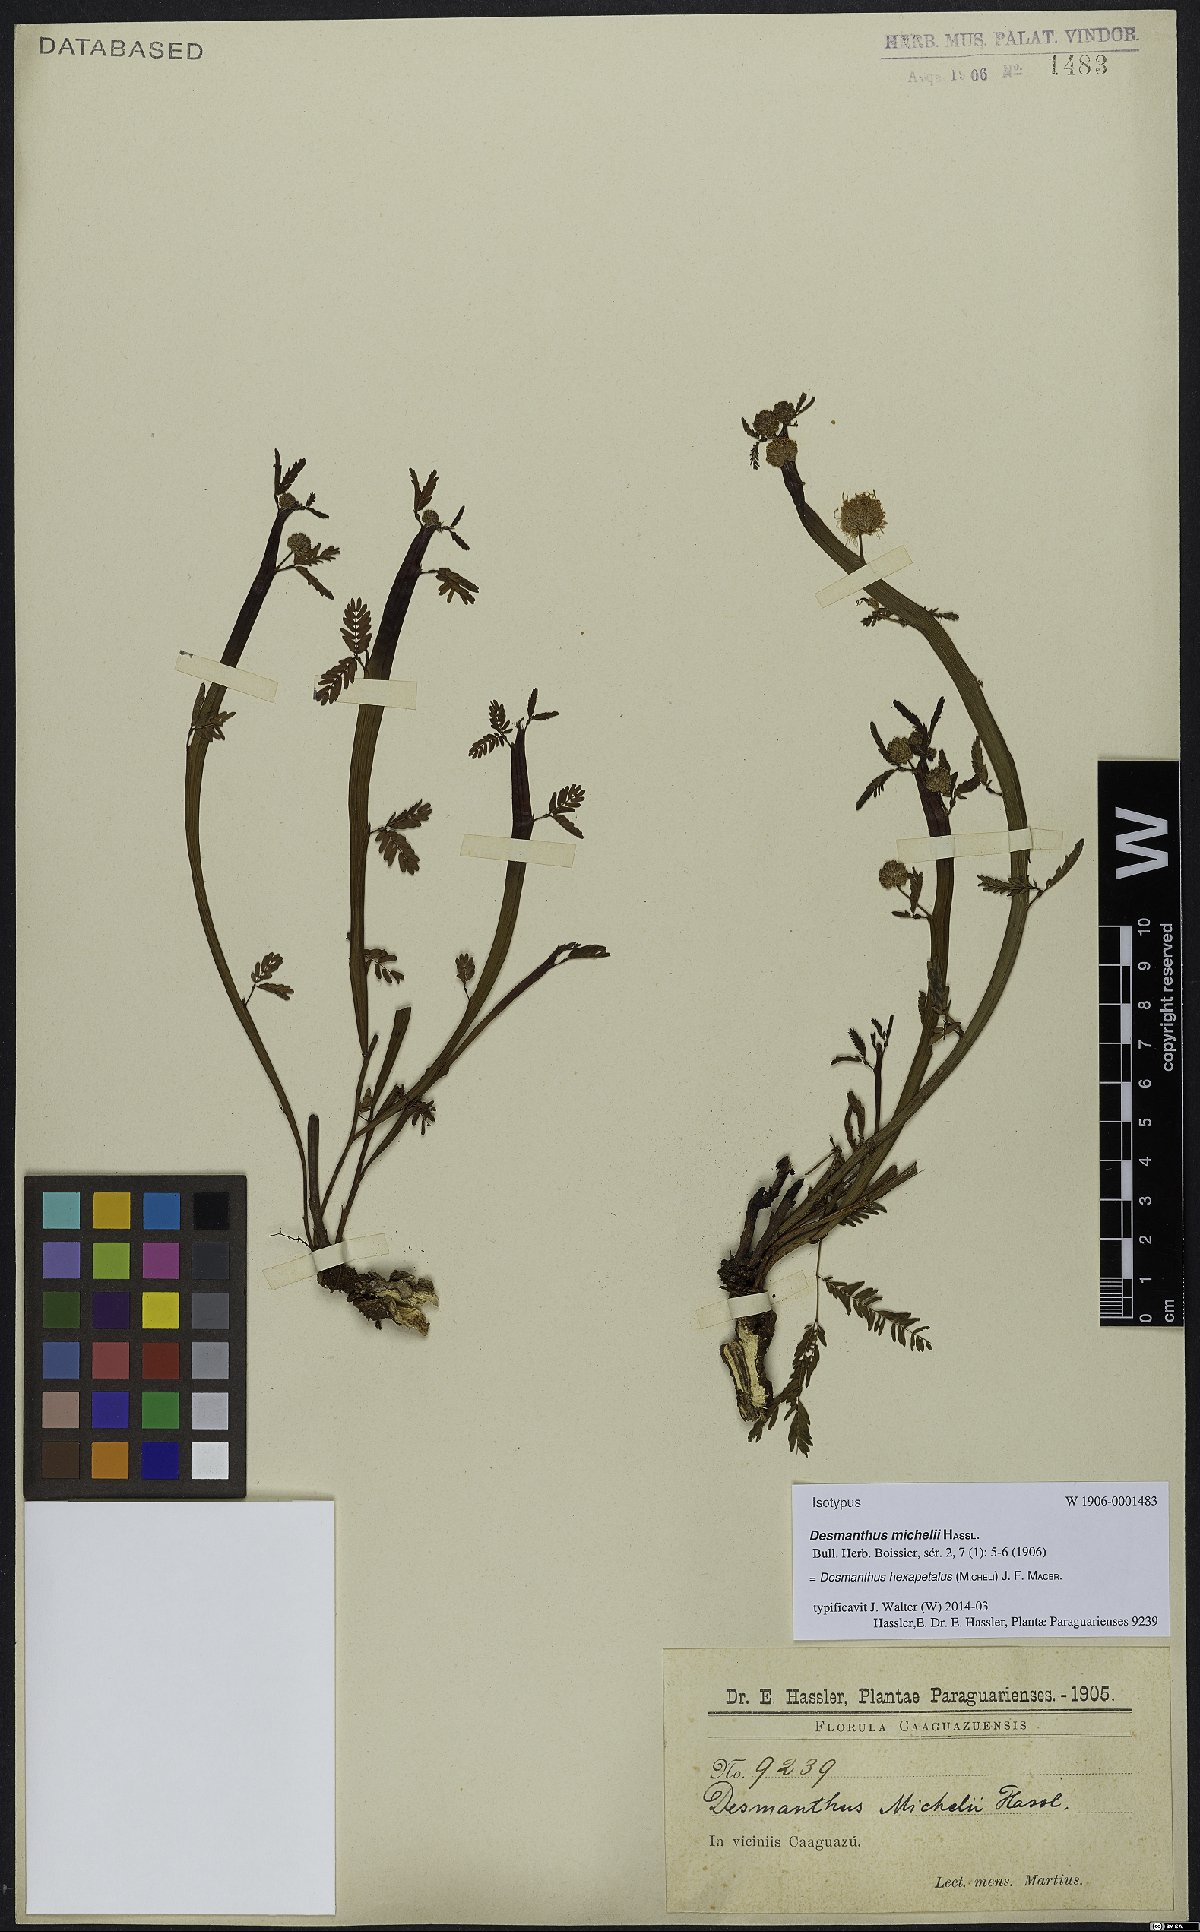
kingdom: Plantae
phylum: Tracheophyta
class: Magnoliopsida
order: Fabales
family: Fabaceae
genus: Desmanthus
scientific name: Desmanthus hexapetalus
